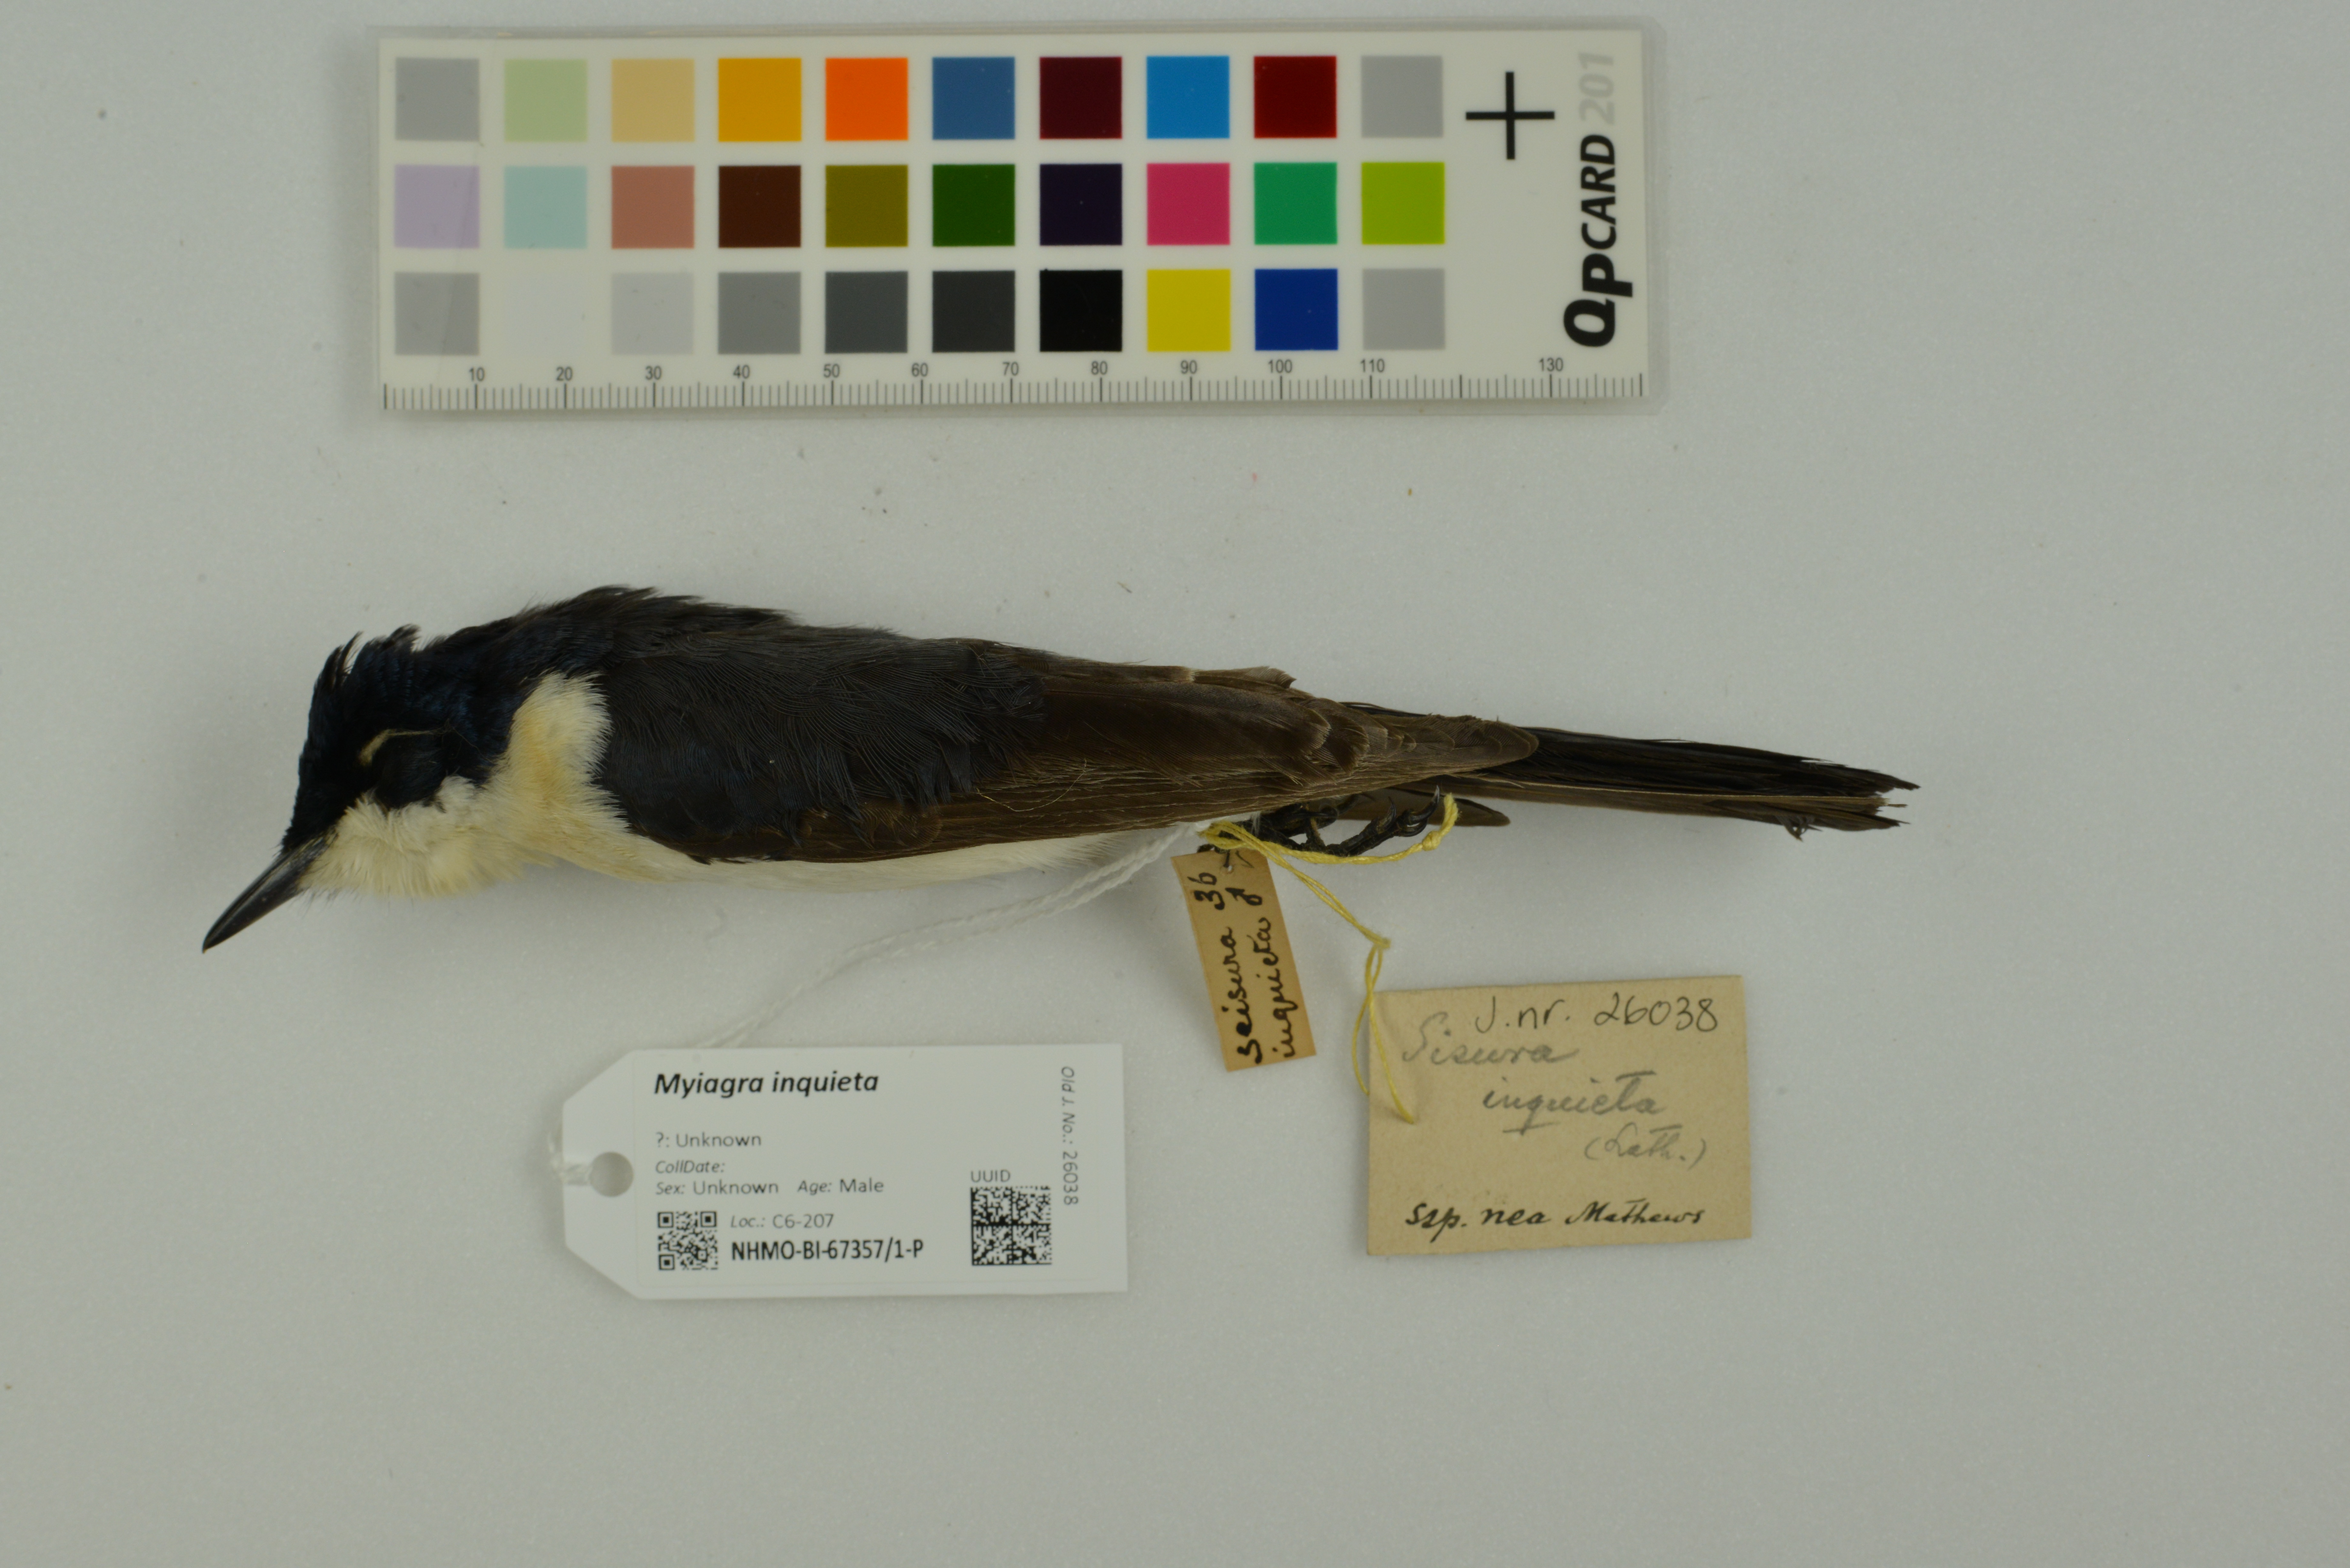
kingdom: Animalia
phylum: Chordata
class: Aves
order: Passeriformes
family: Monarchidae
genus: Myiagra
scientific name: Myiagra inquieta
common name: Restless flycatcher
